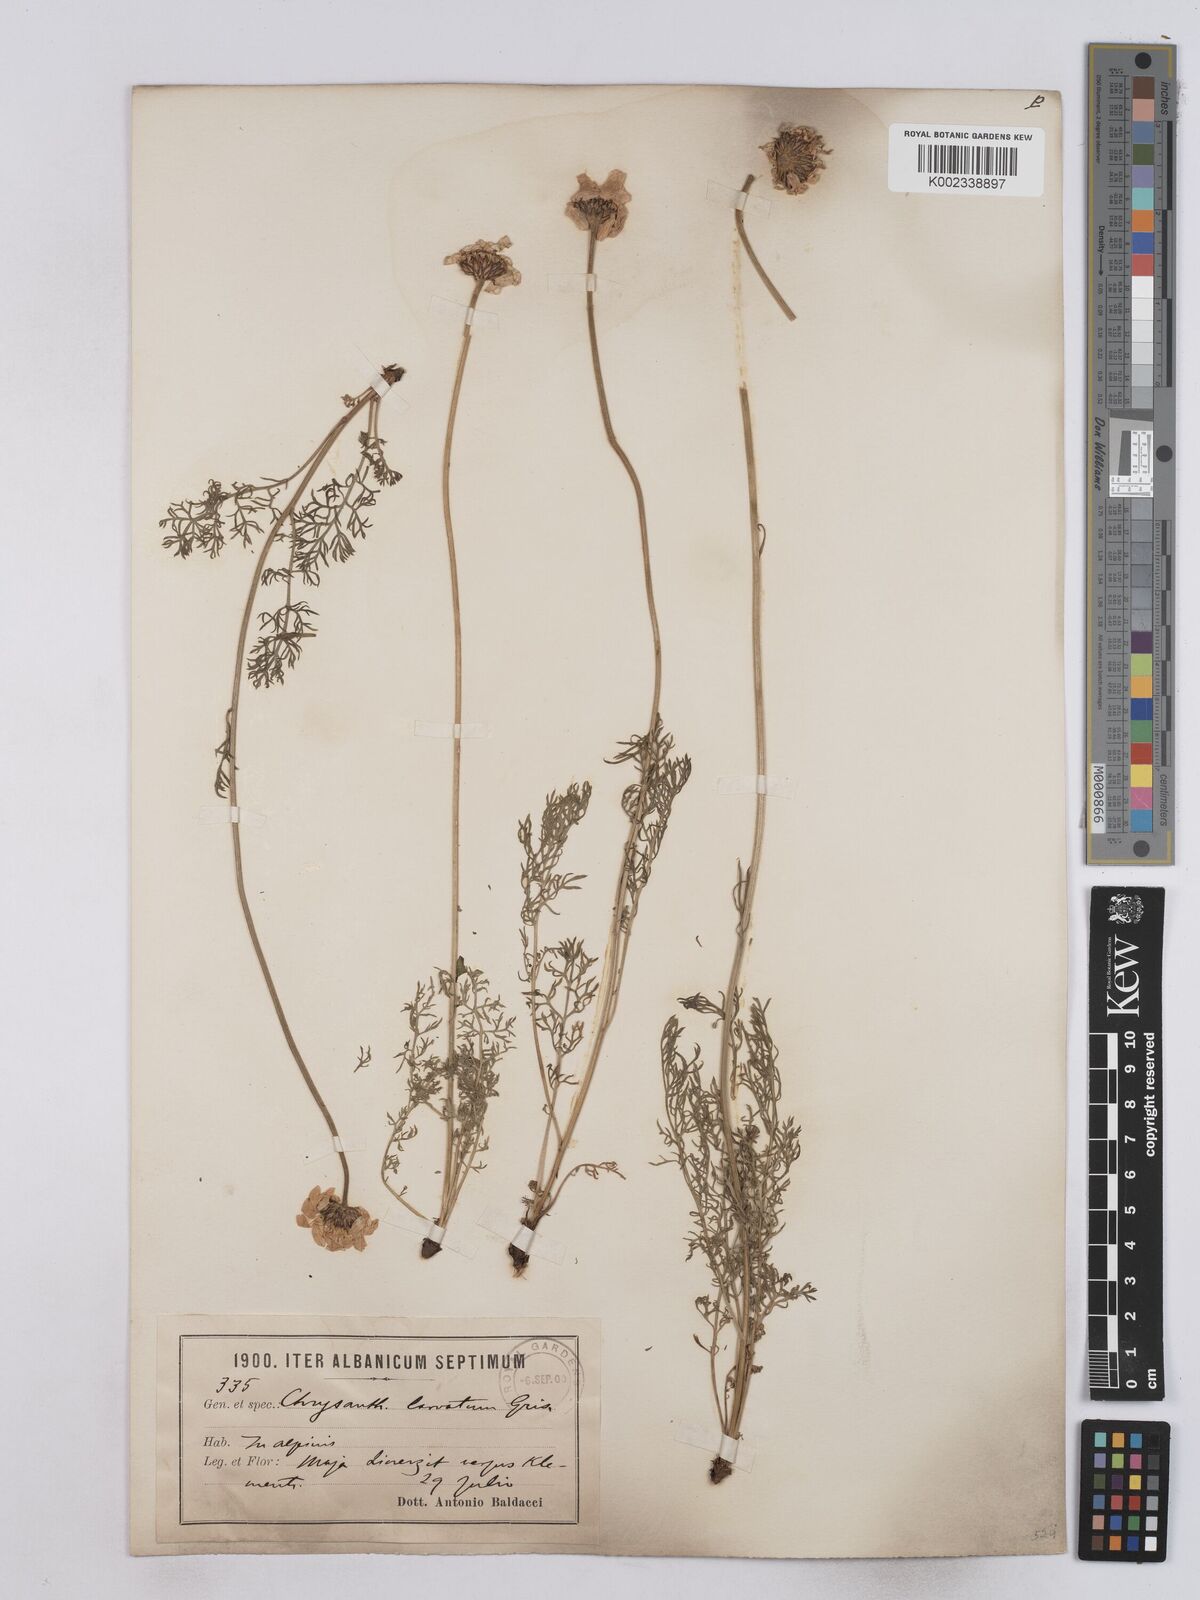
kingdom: Plantae
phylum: Tracheophyta
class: Magnoliopsida
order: Asterales
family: Asteraceae
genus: Leucanthemum
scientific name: Leucanthemum coronopifolium
